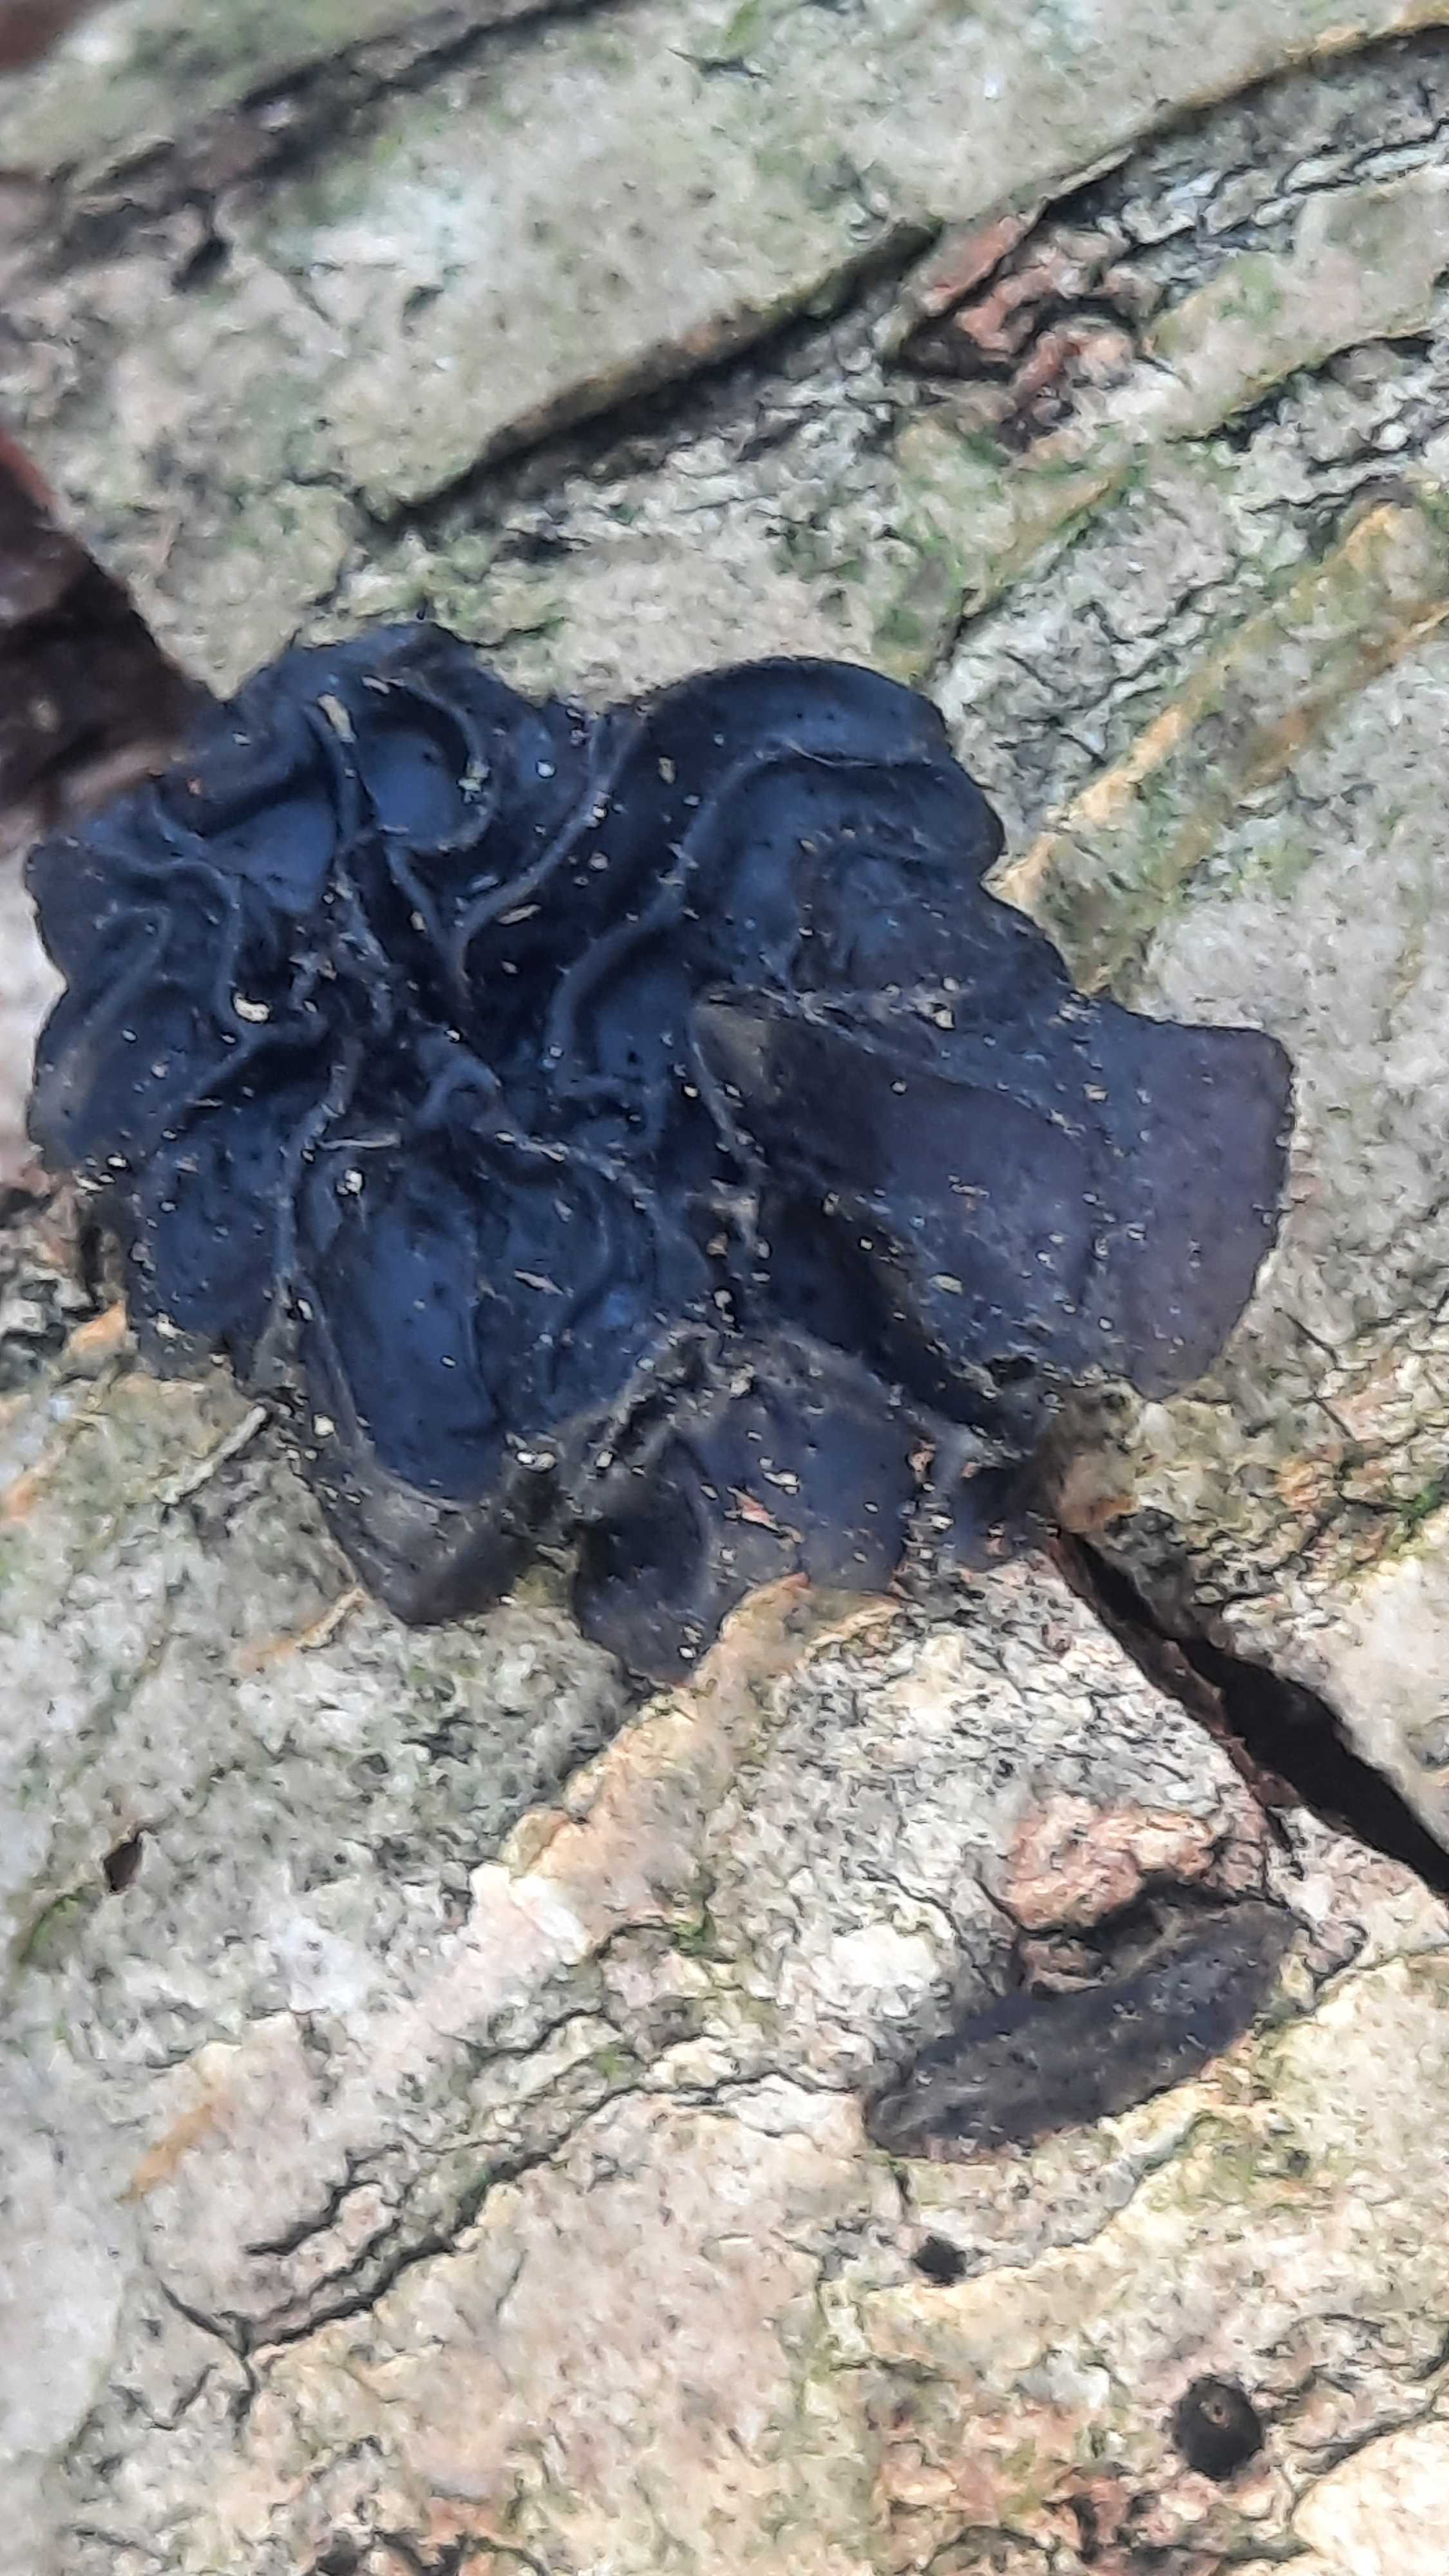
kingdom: Fungi
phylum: Basidiomycota
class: Agaricomycetes
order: Auriculariales
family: Auriculariaceae
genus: Exidia
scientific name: Exidia glandulosa
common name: ege-bævretop
